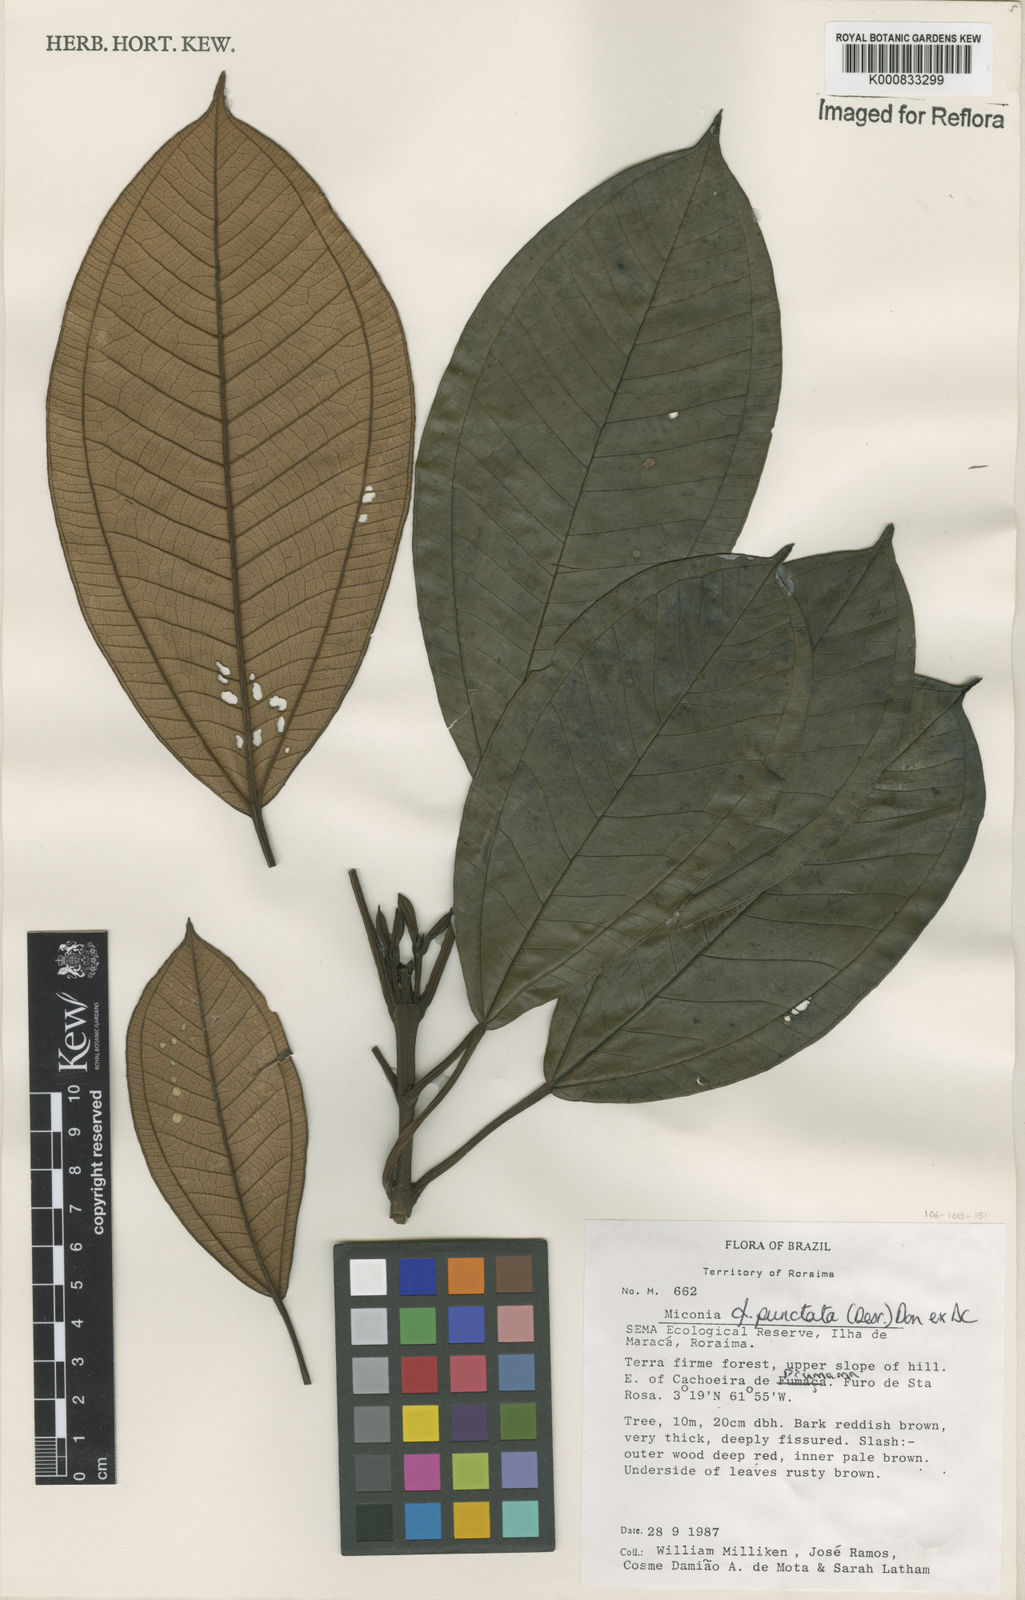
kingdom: Plantae
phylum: Tracheophyta
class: Magnoliopsida
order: Myrtales
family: Melastomataceae
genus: Miconia
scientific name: Miconia punctata
